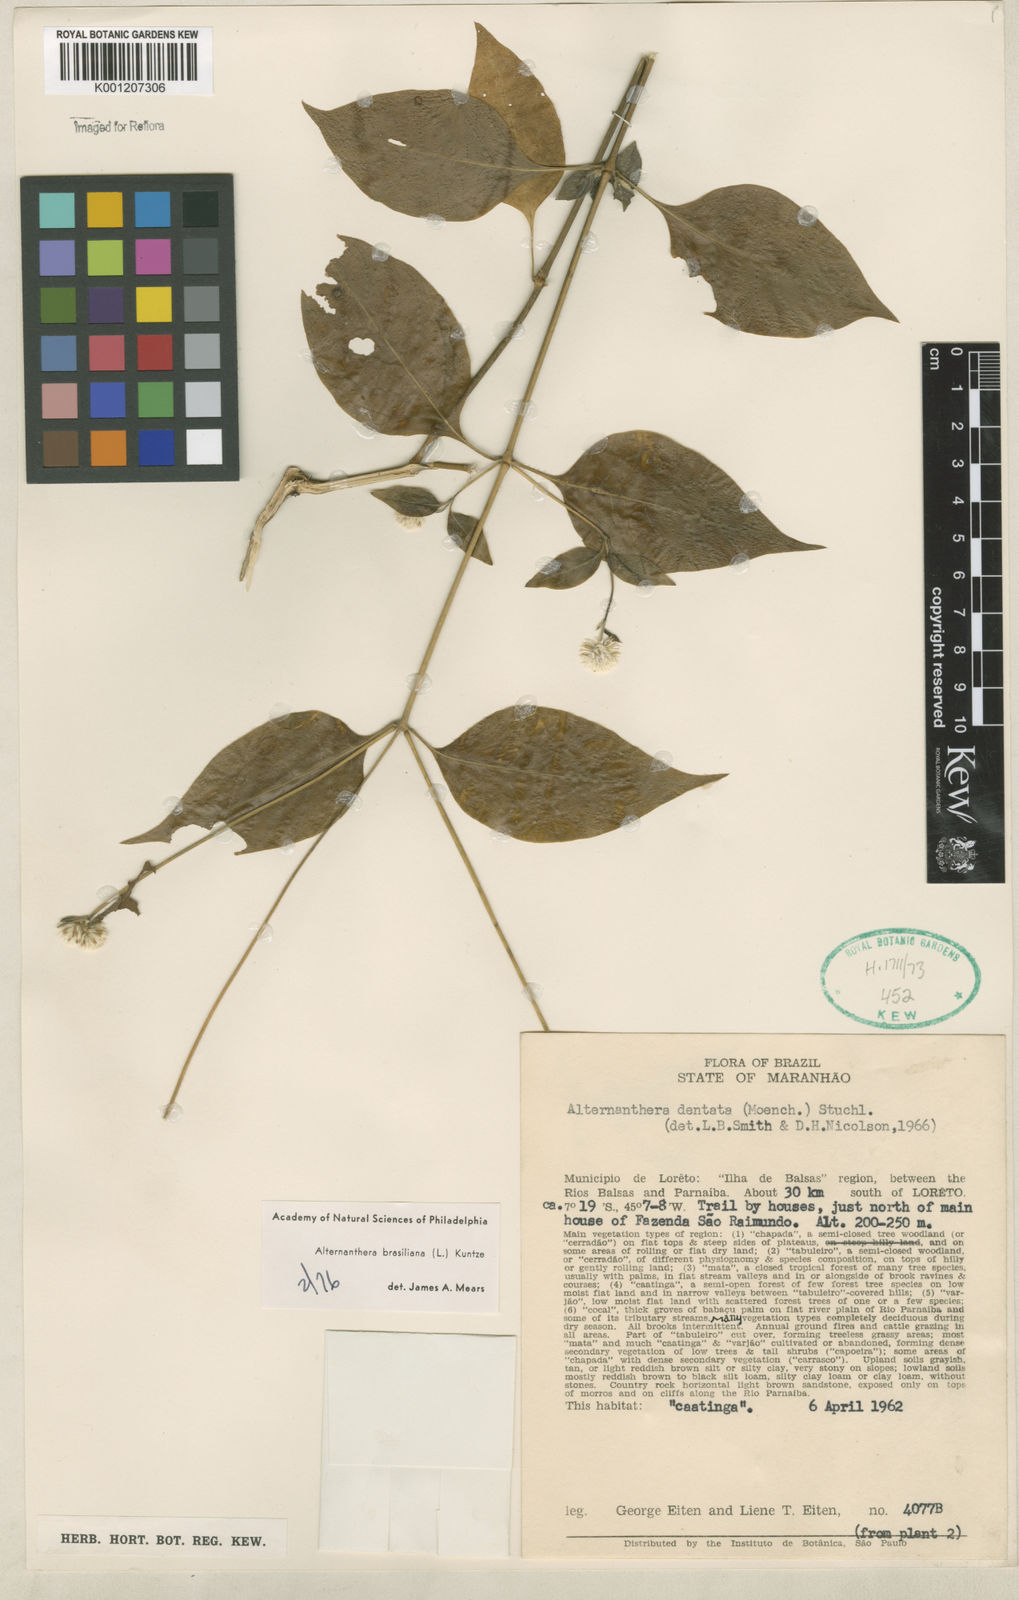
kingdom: Plantae
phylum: Tracheophyta
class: Magnoliopsida
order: Caryophyllales
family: Amaranthaceae
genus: Alternanthera
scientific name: Alternanthera brasiliana
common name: Brazilian joyweed
